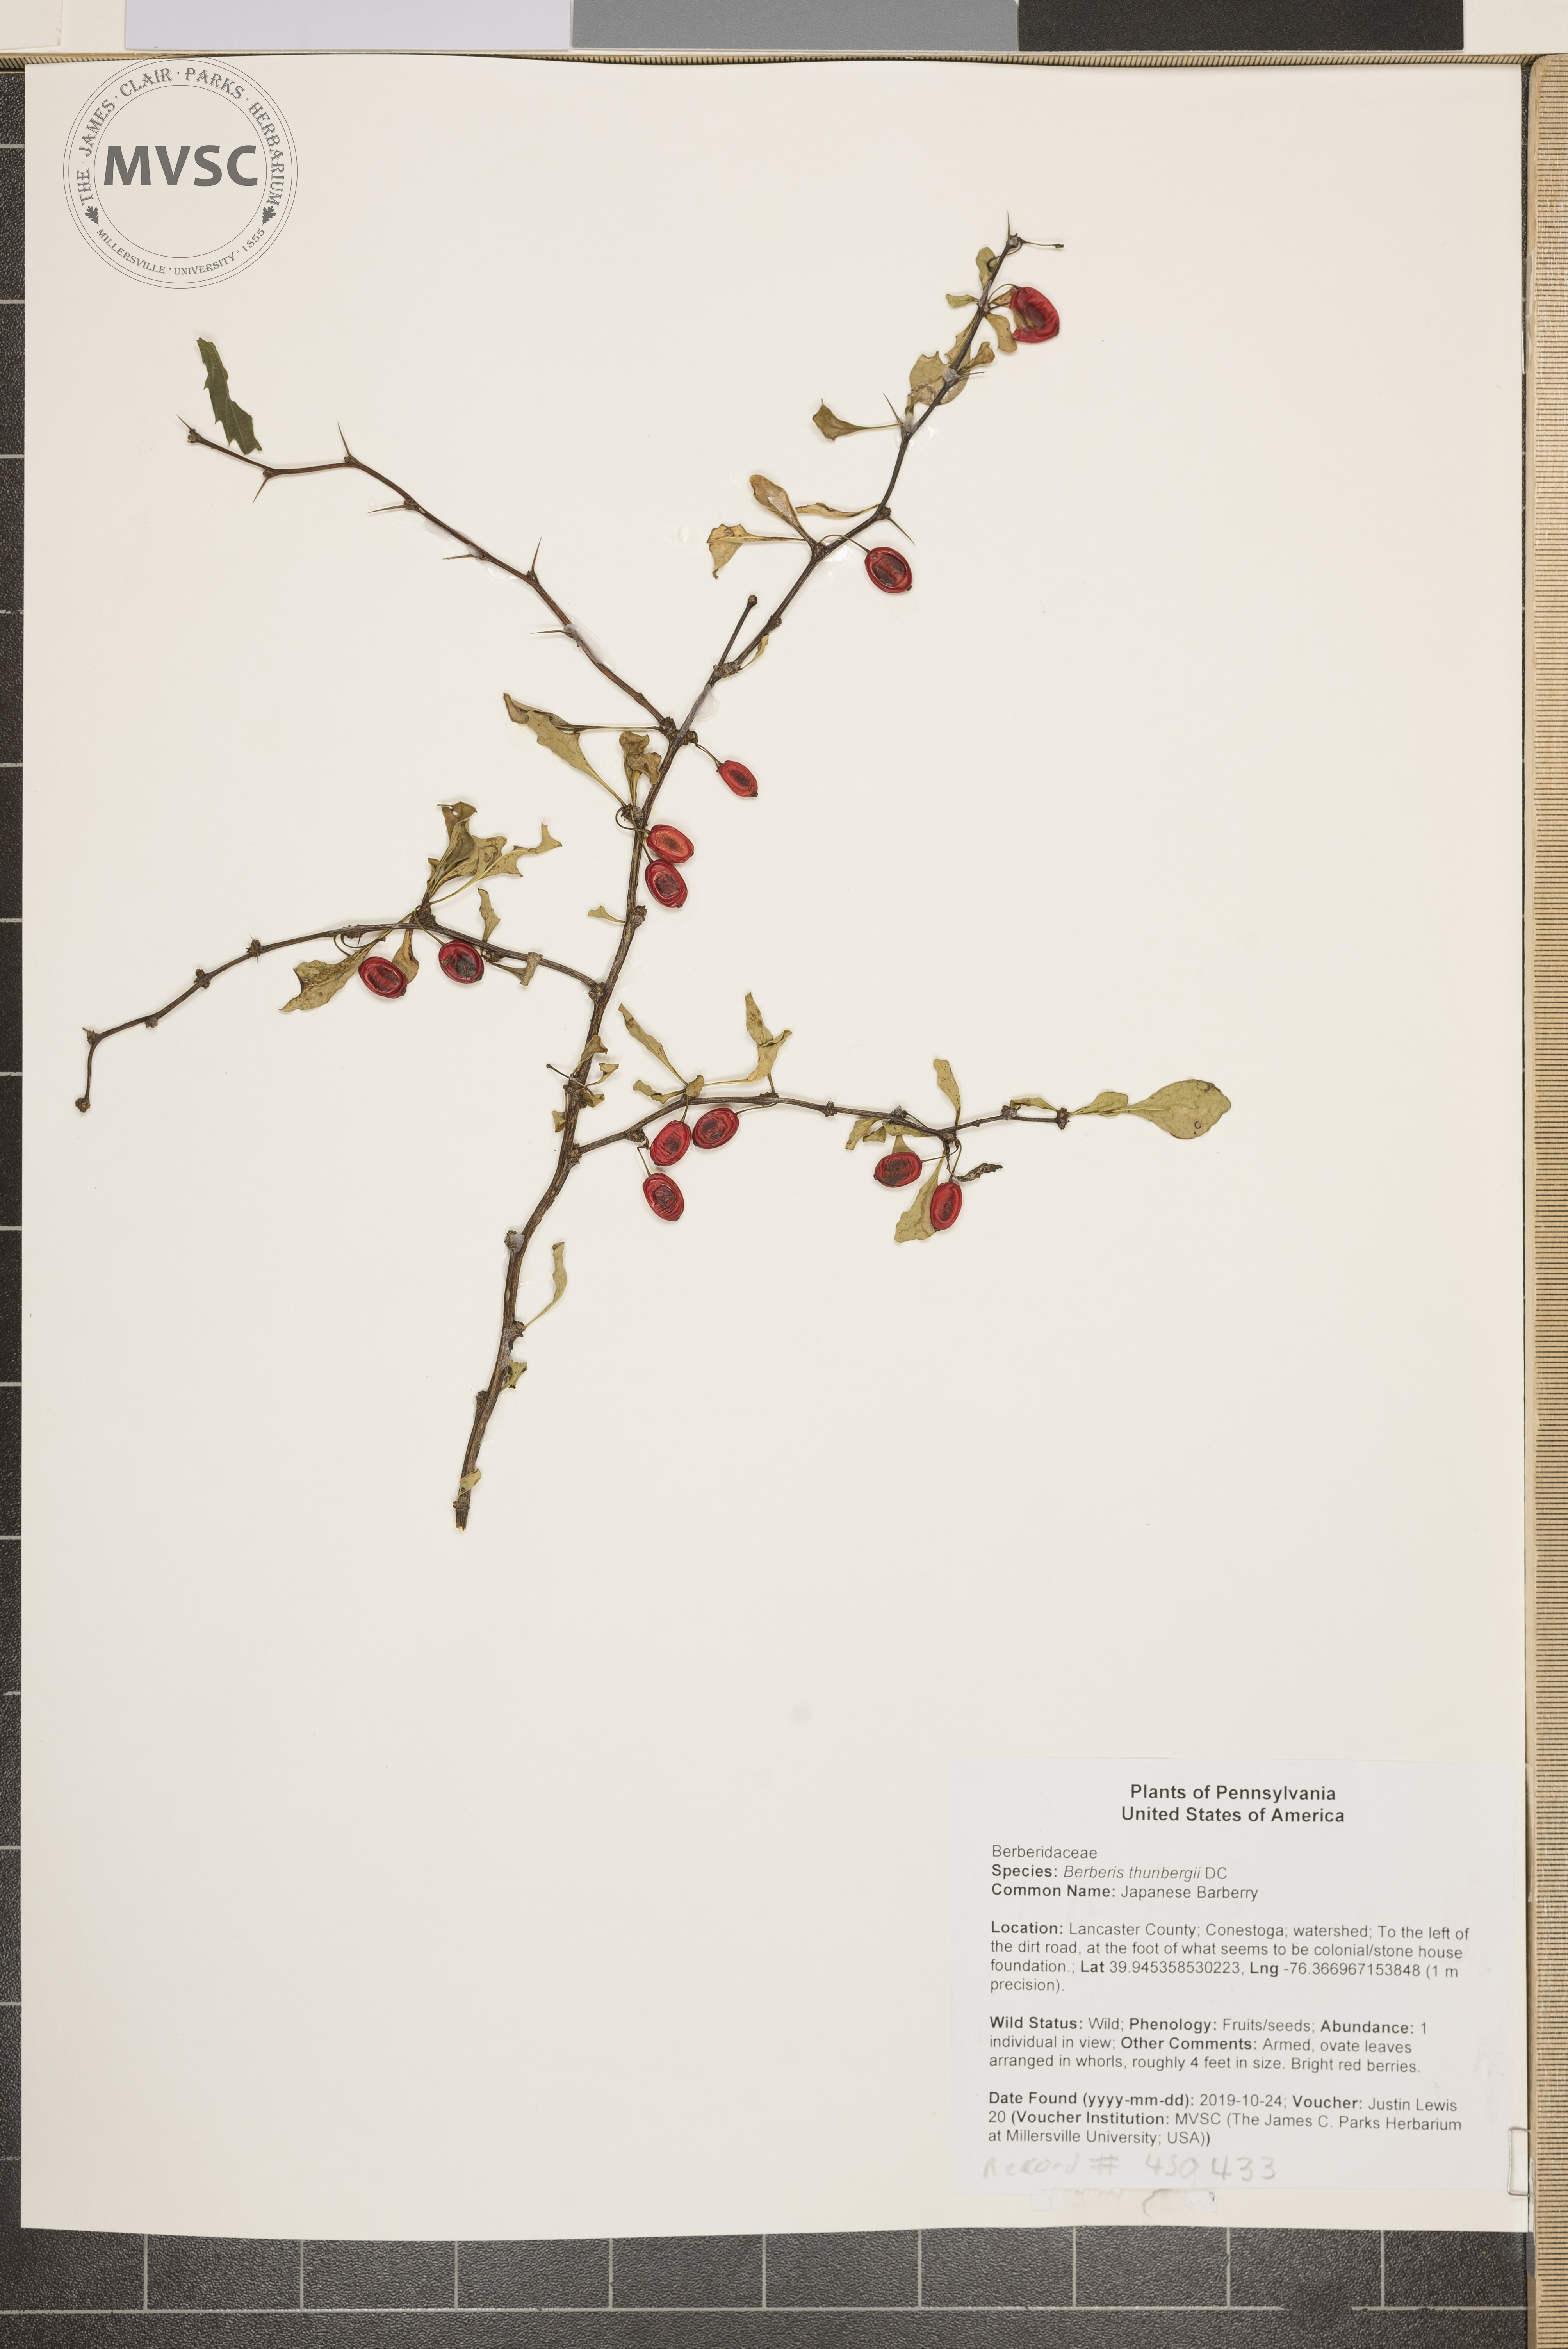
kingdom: Plantae
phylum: Tracheophyta
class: Magnoliopsida
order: Ranunculales
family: Berberidaceae
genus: Berberis
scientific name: Berberis thunbergii
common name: Japanese Barberry
